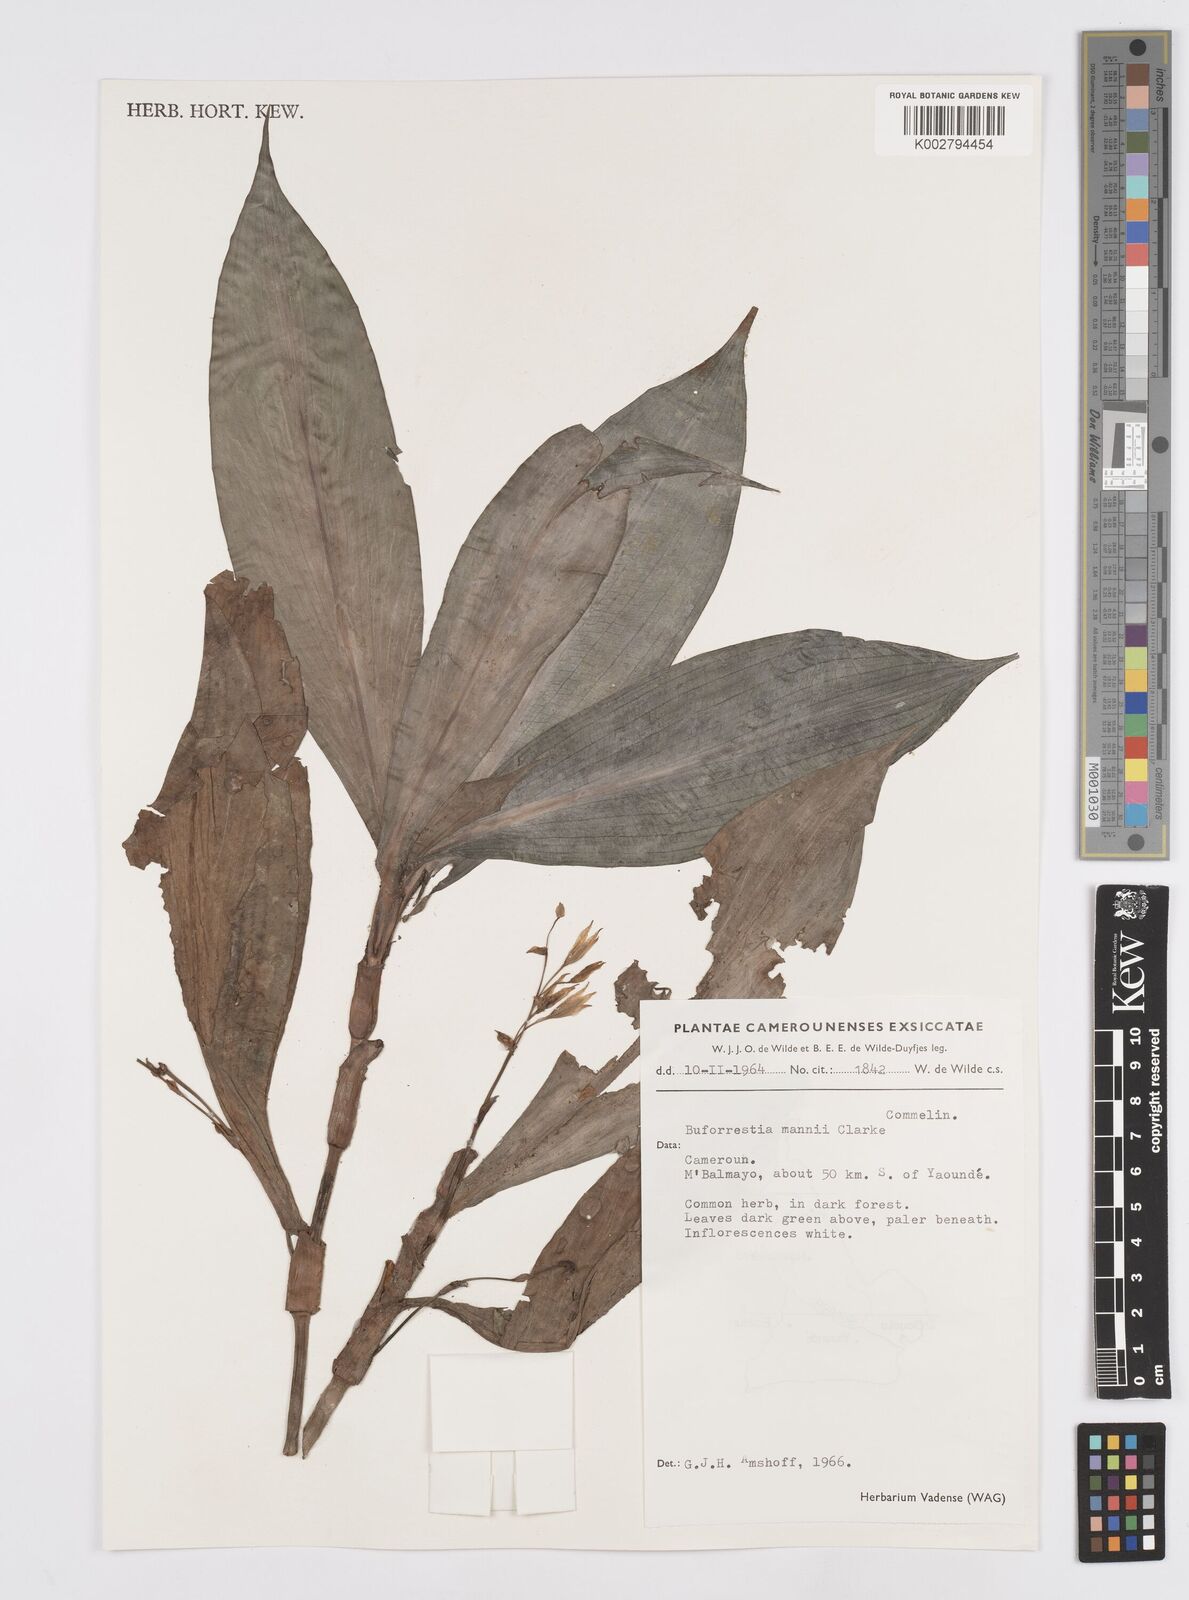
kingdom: Plantae
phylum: Tracheophyta
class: Liliopsida
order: Commelinales
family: Commelinaceae
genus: Buforrestia
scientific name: Buforrestia mannii
